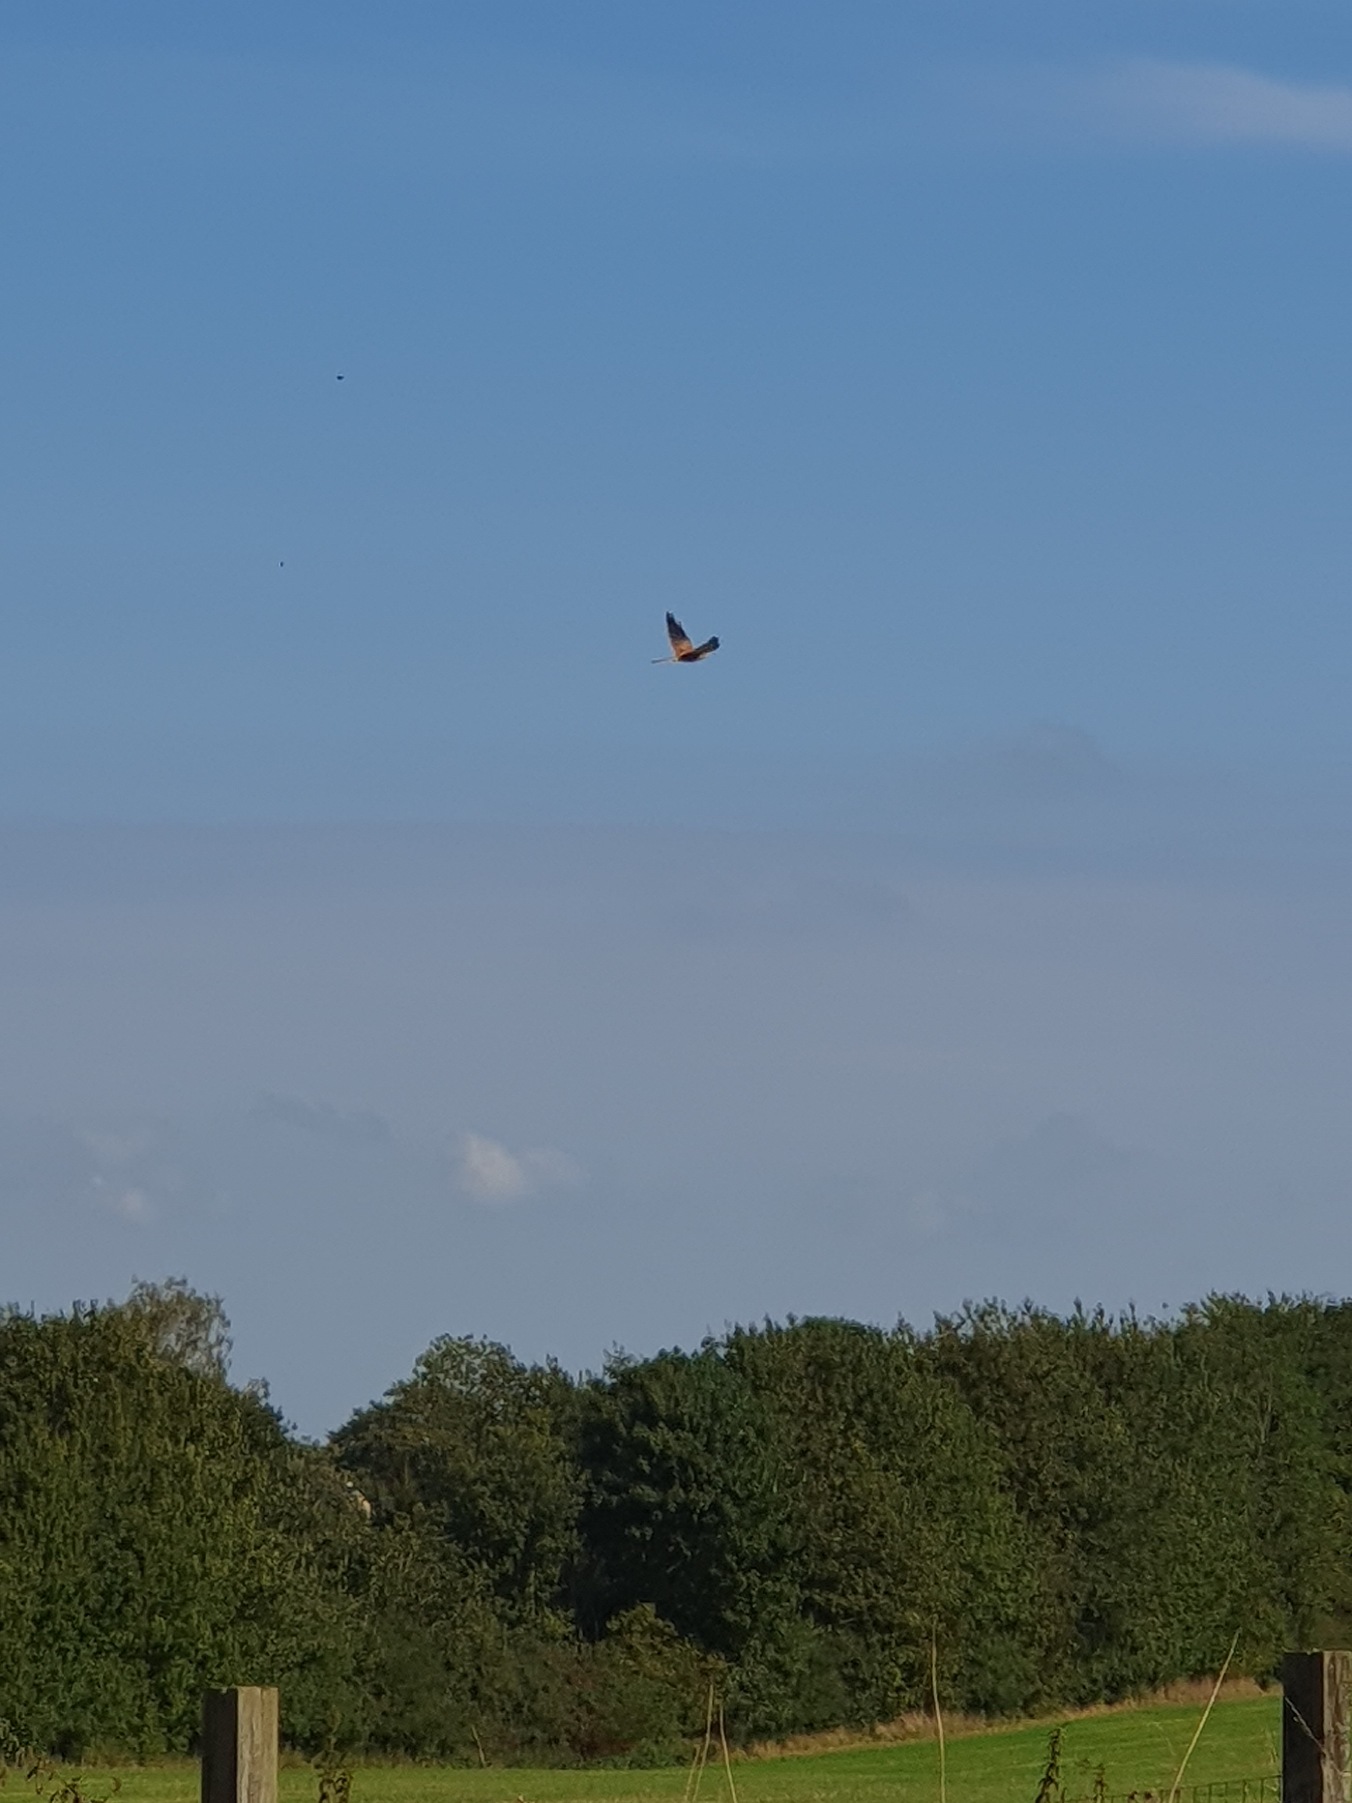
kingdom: Animalia
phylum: Chordata
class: Aves
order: Falconiformes
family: Falconidae
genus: Falco
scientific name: Falco tinnunculus
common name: Tårnfalk
